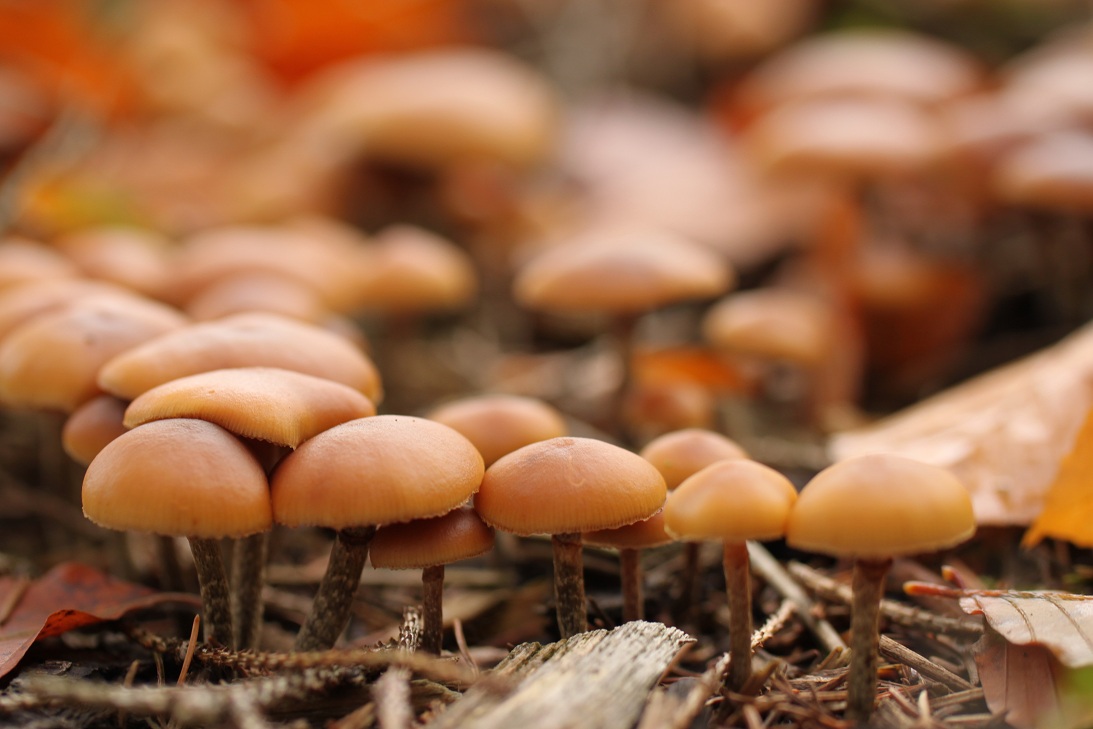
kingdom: Fungi
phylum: Basidiomycota
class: Agaricomycetes
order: Agaricales
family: Hymenogastraceae
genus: Galerina
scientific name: Galerina marginata
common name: randbæltet hjelmhat
